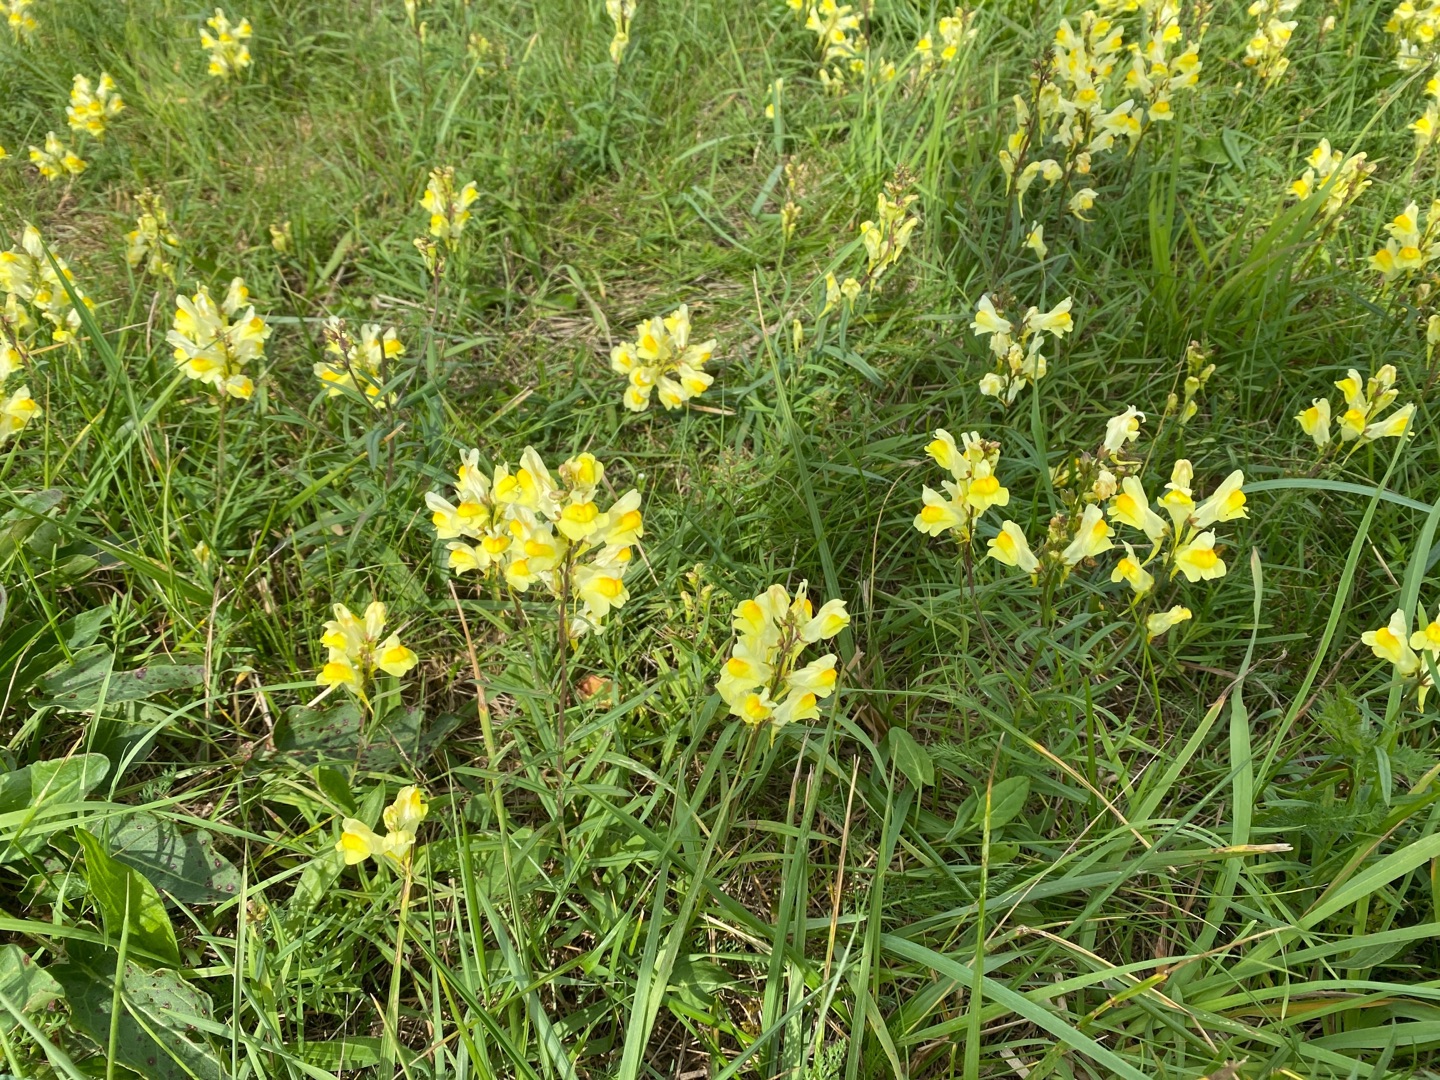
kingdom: Plantae
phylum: Tracheophyta
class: Magnoliopsida
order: Lamiales
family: Plantaginaceae
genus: Linaria
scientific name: Linaria vulgaris
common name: Almindelig torskemund
